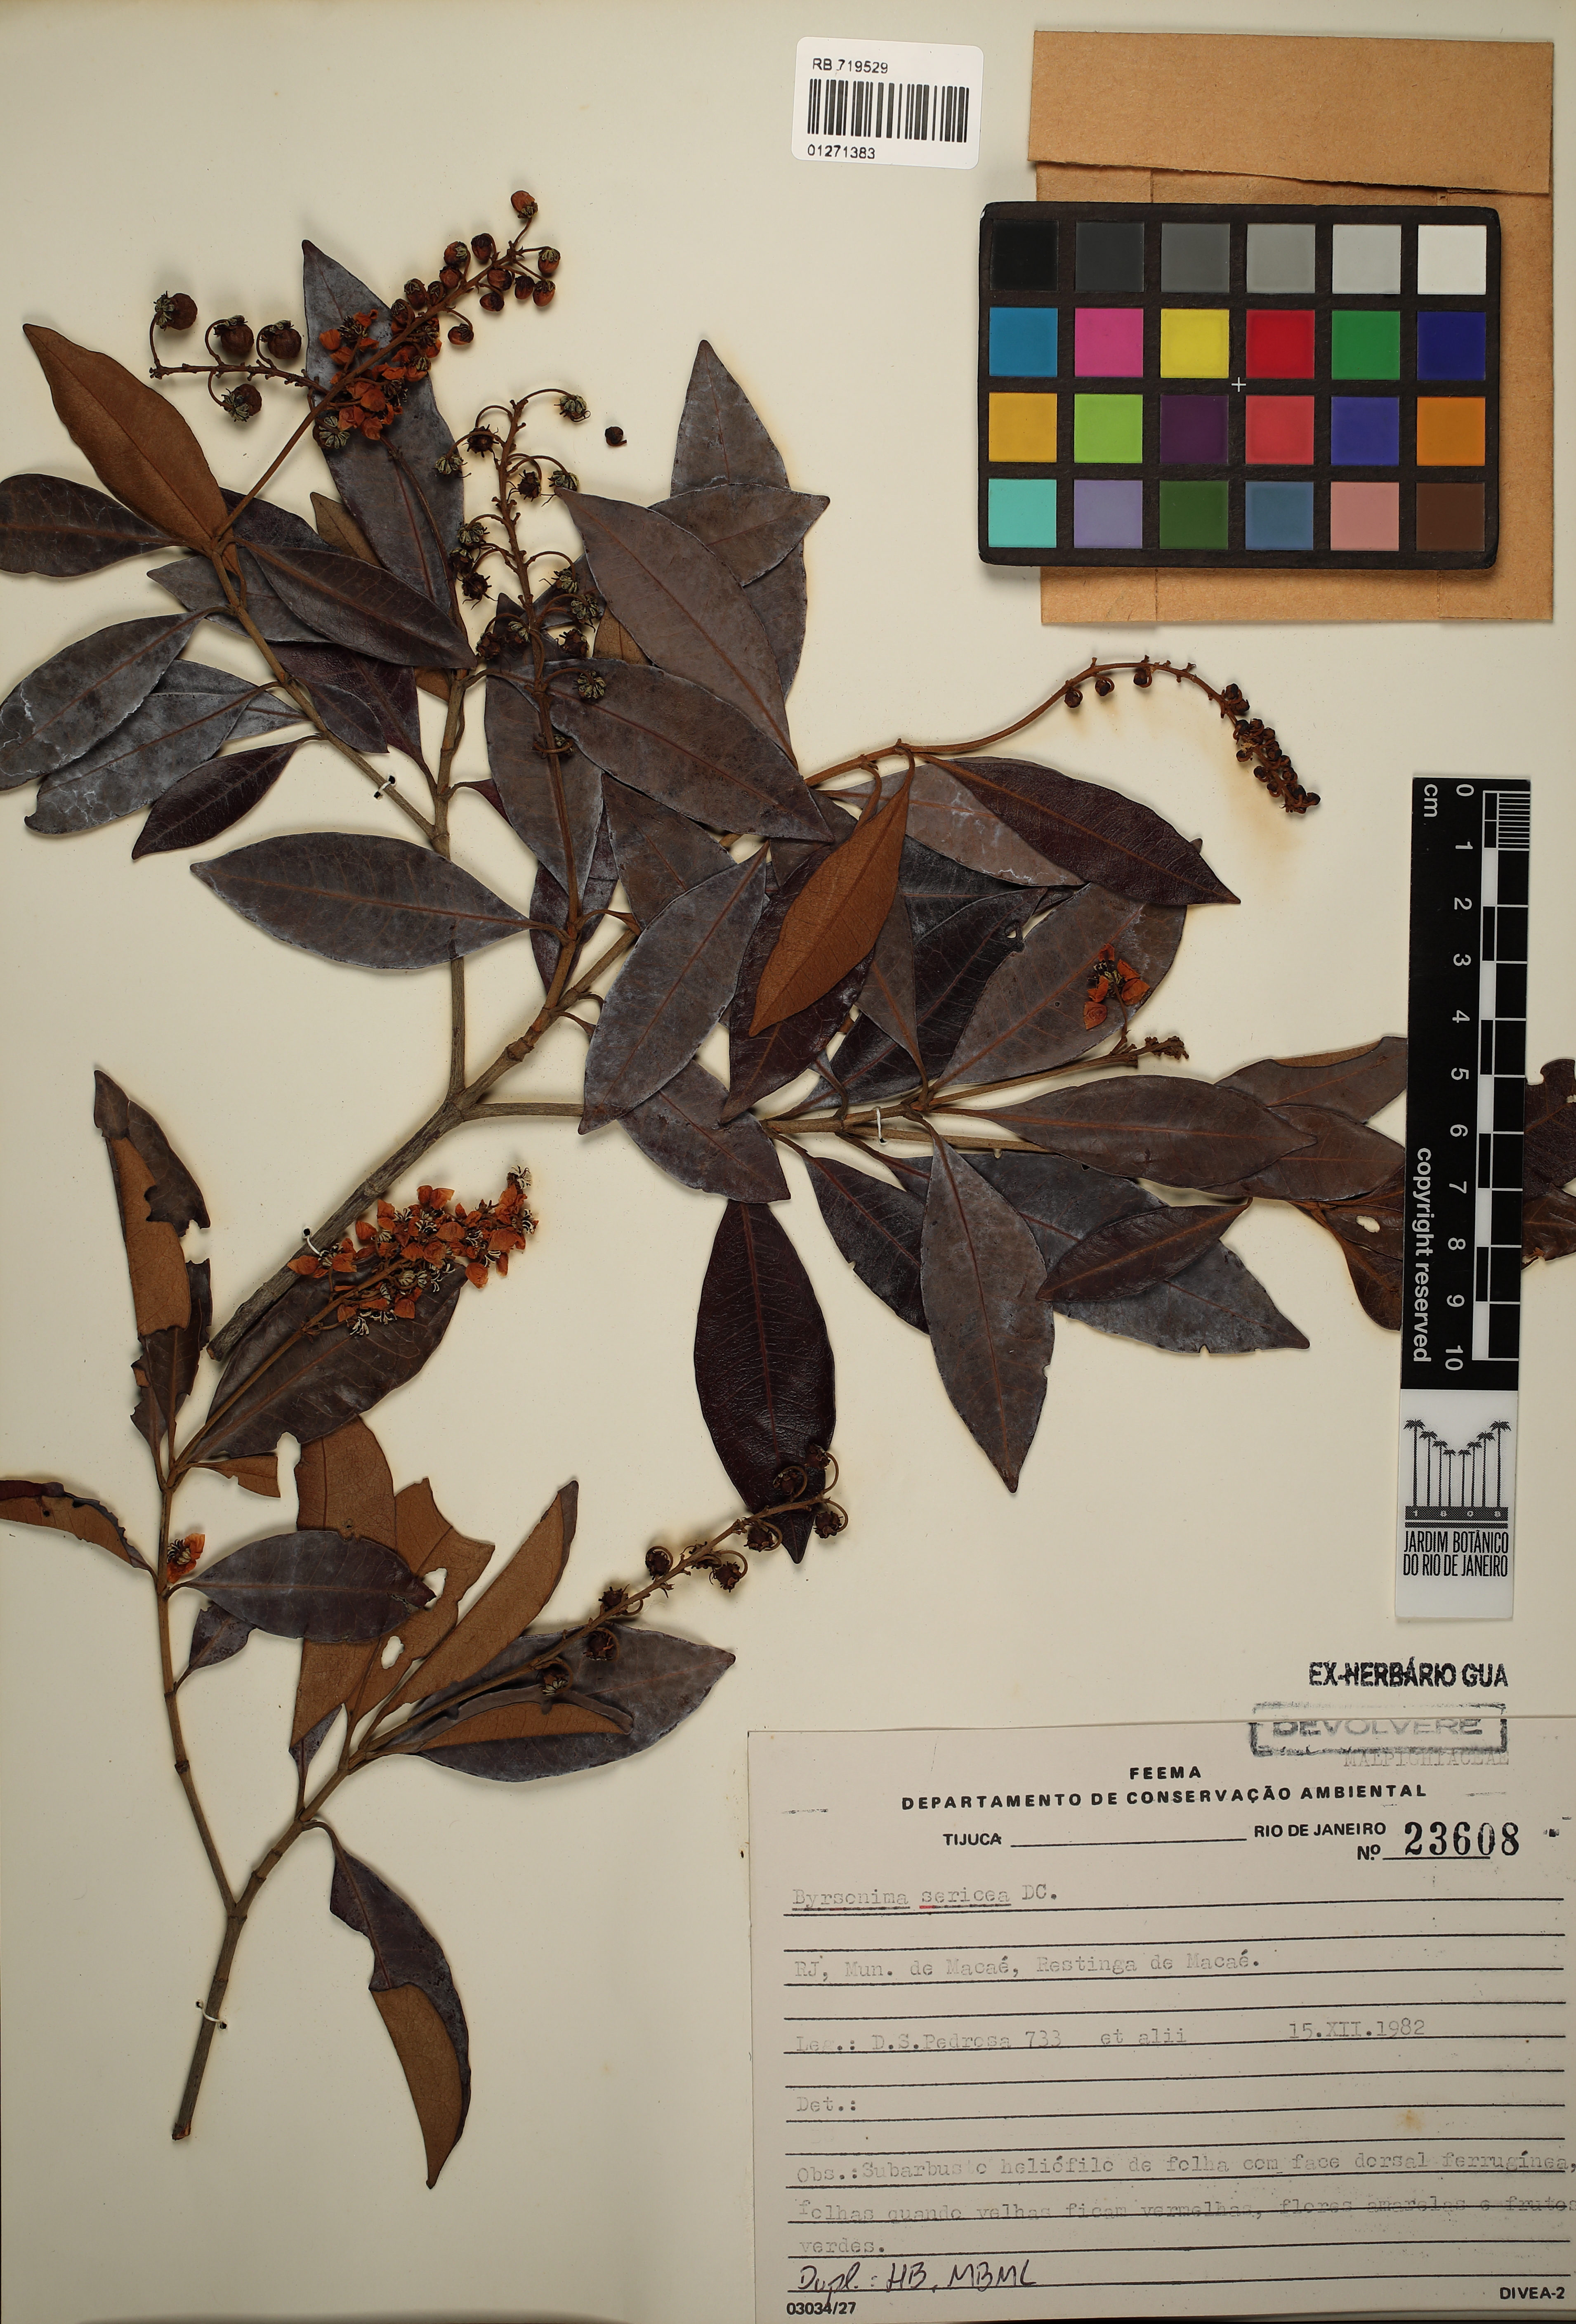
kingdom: Plantae
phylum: Tracheophyta
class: Magnoliopsida
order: Malpighiales
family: Malpighiaceae
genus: Byrsonima
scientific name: Byrsonima sericea
